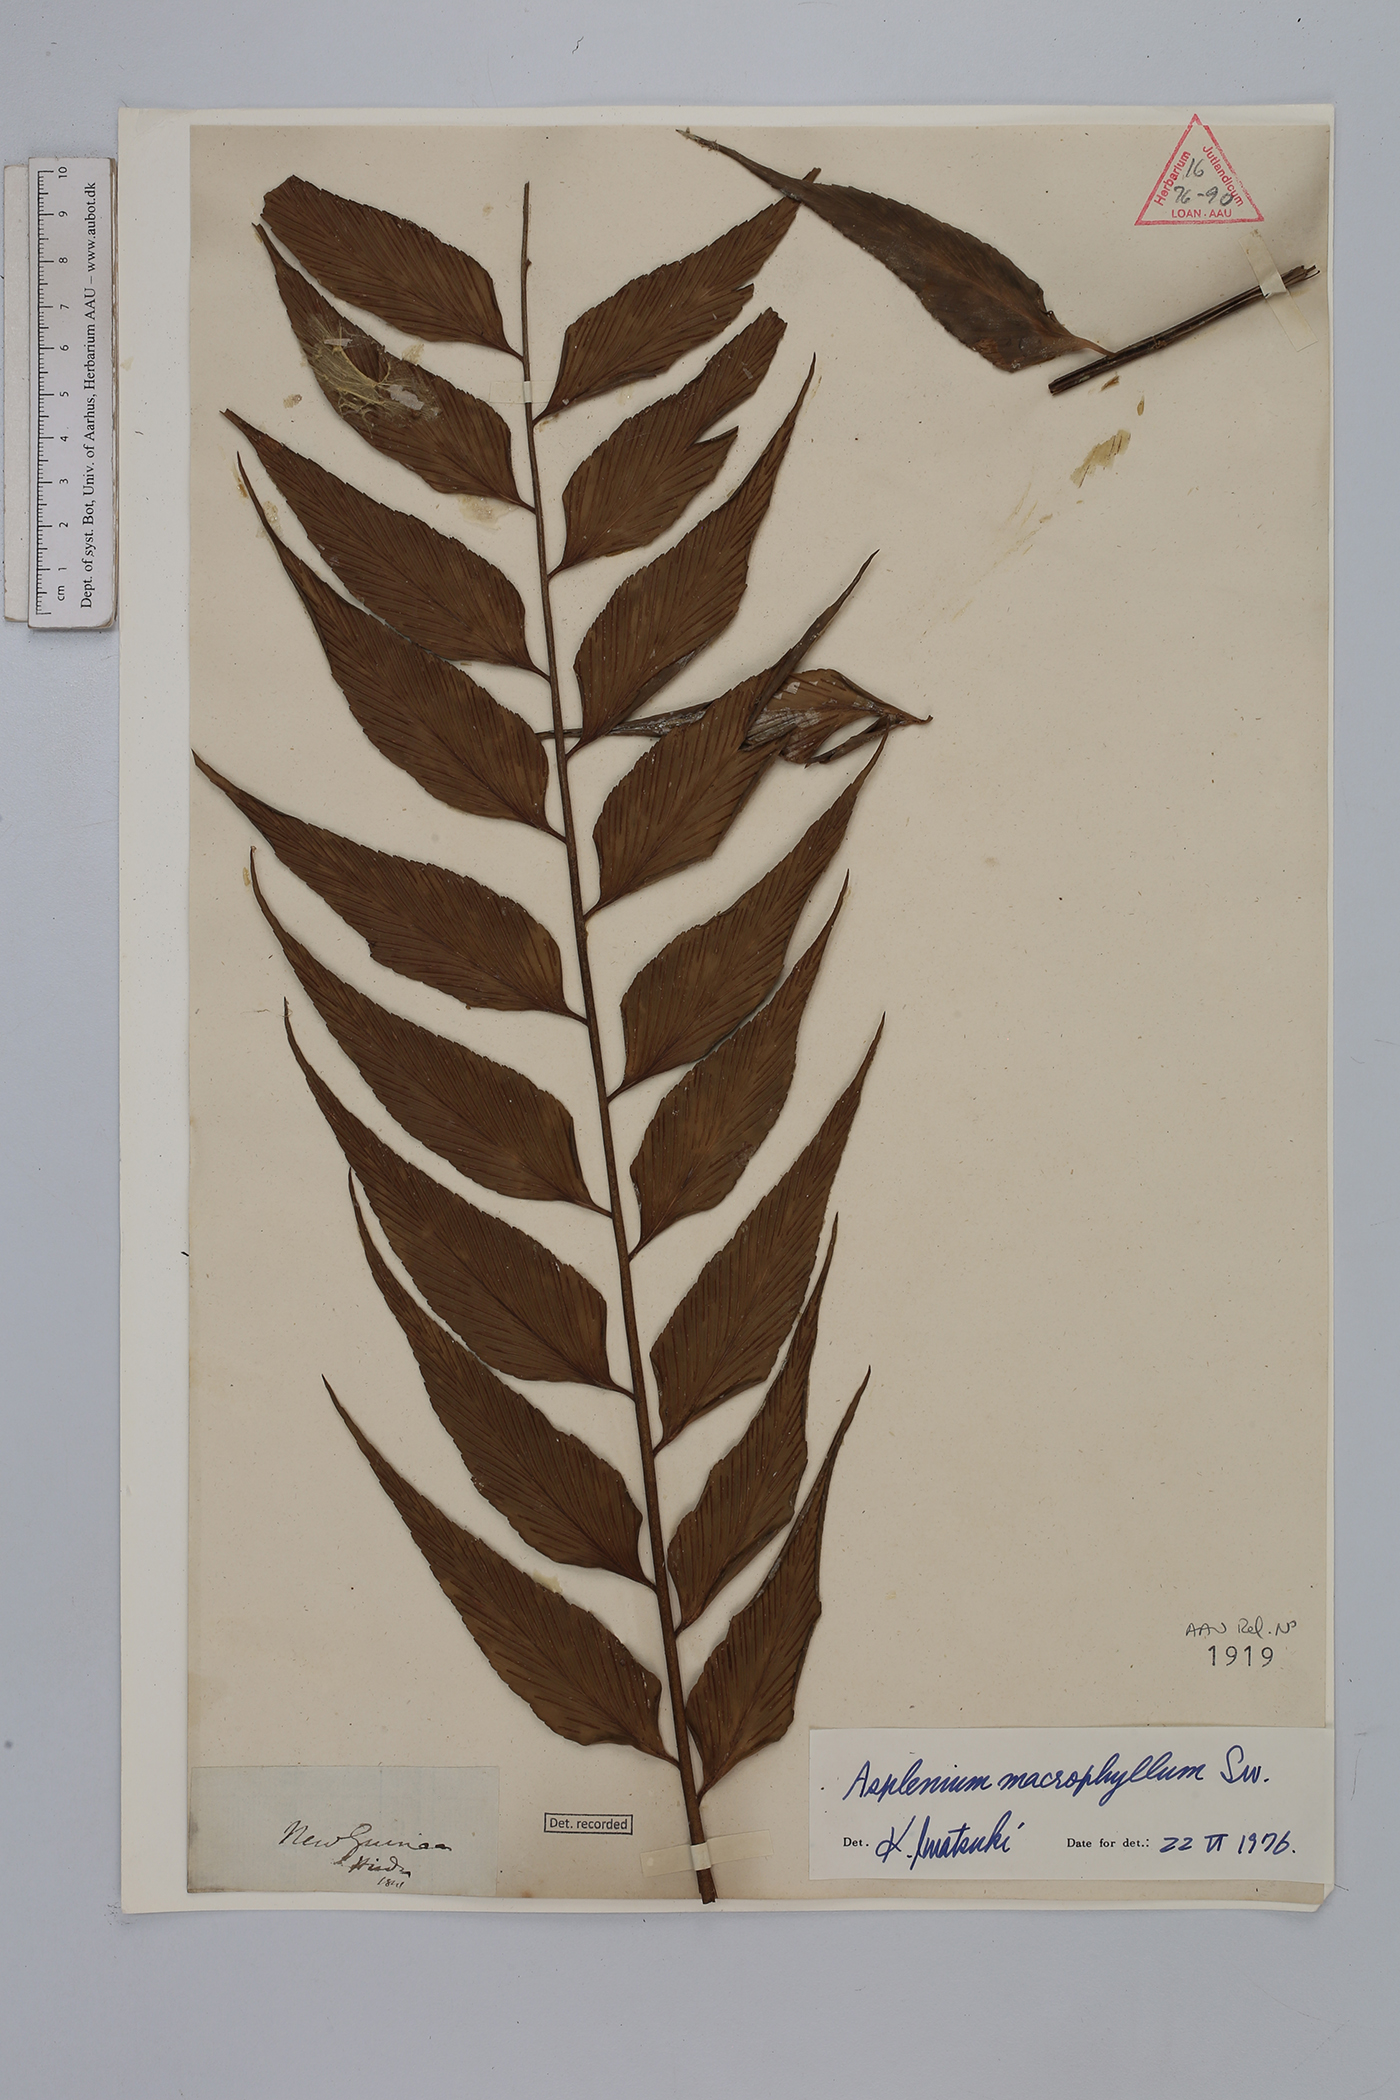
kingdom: Plantae
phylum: Tracheophyta
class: Polypodiopsida
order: Polypodiales
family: Aspleniaceae
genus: Asplenium
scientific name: Asplenium macrophyllum
